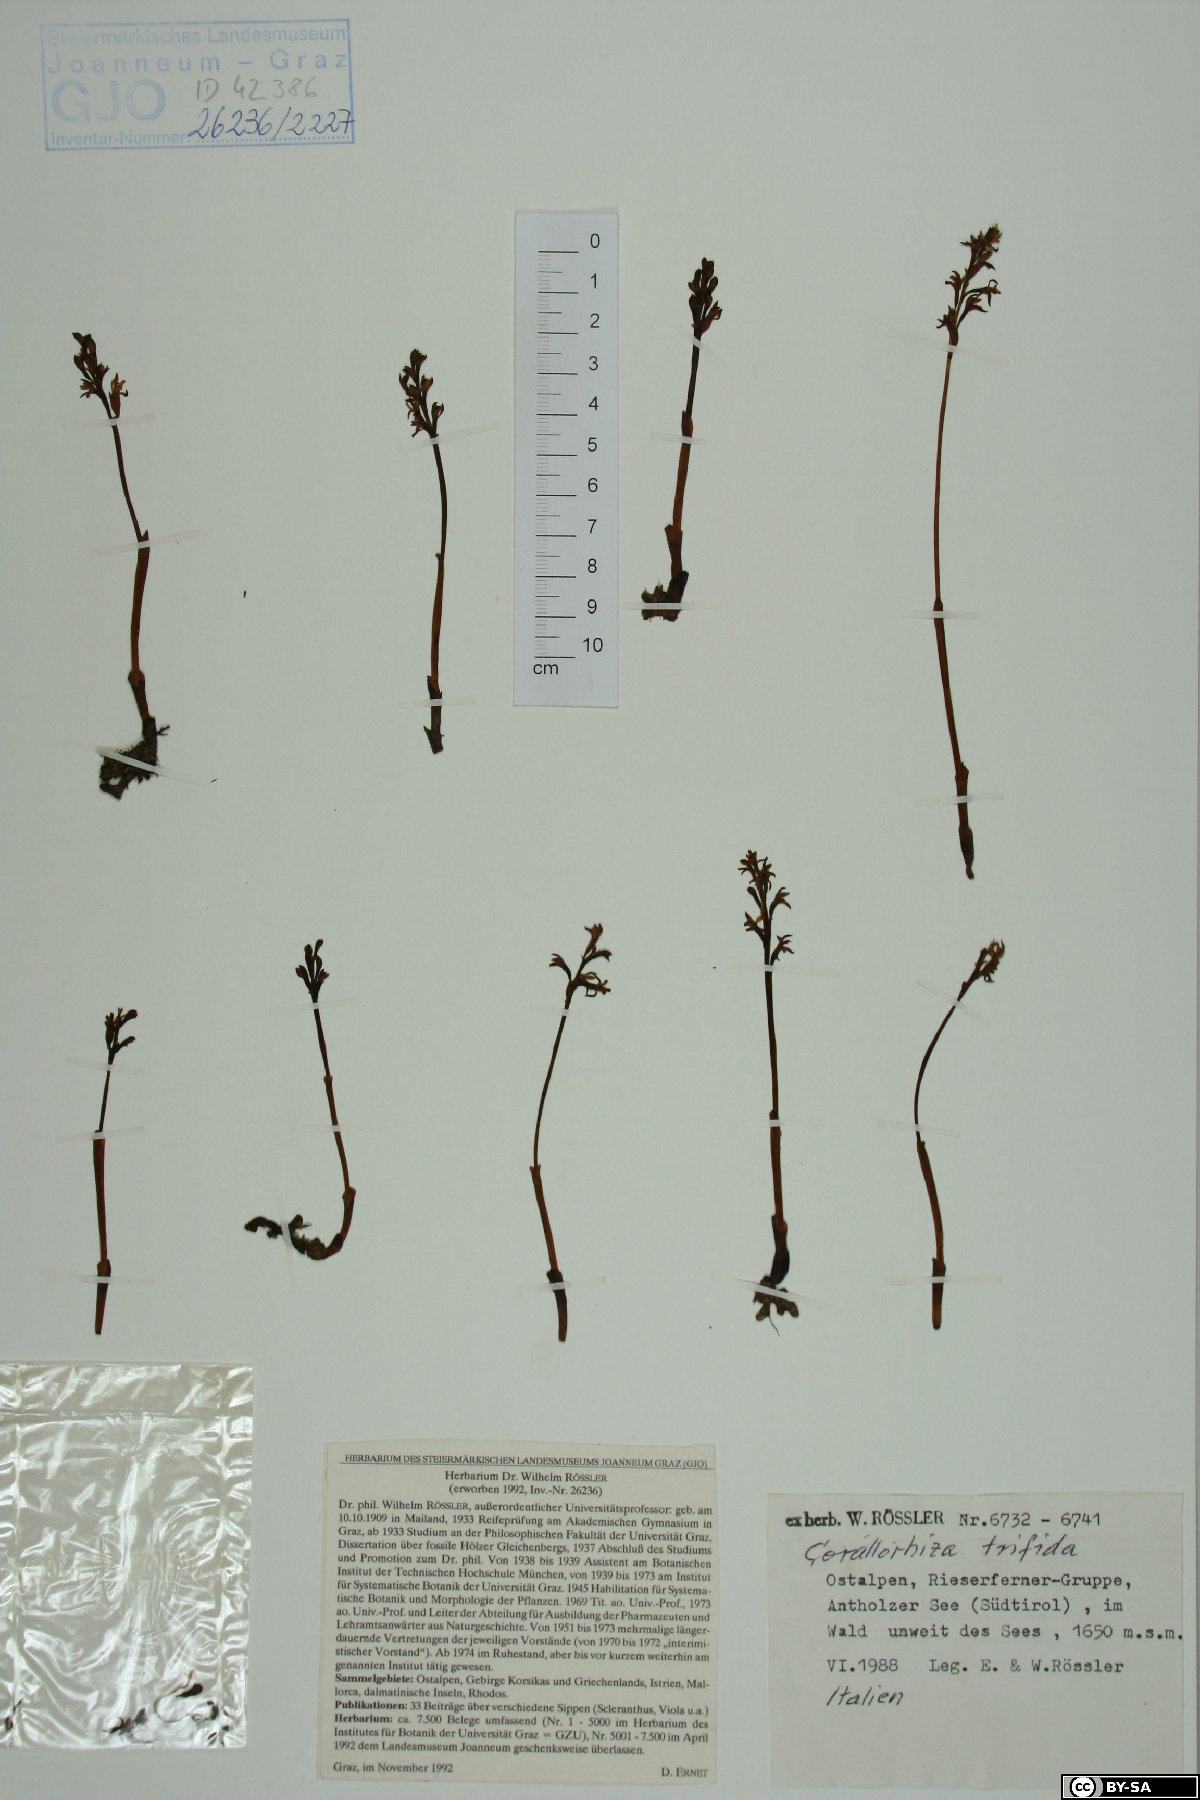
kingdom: Plantae
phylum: Tracheophyta
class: Liliopsida
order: Asparagales
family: Orchidaceae
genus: Corallorhiza
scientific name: Corallorhiza trifida
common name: Yellow coralroot
